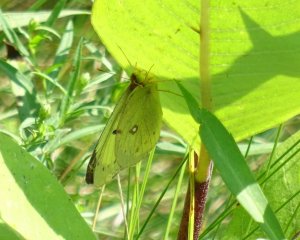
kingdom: Animalia
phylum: Arthropoda
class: Insecta
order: Lepidoptera
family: Pieridae
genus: Colias
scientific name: Colias philodice
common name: Clouded Sulphur
